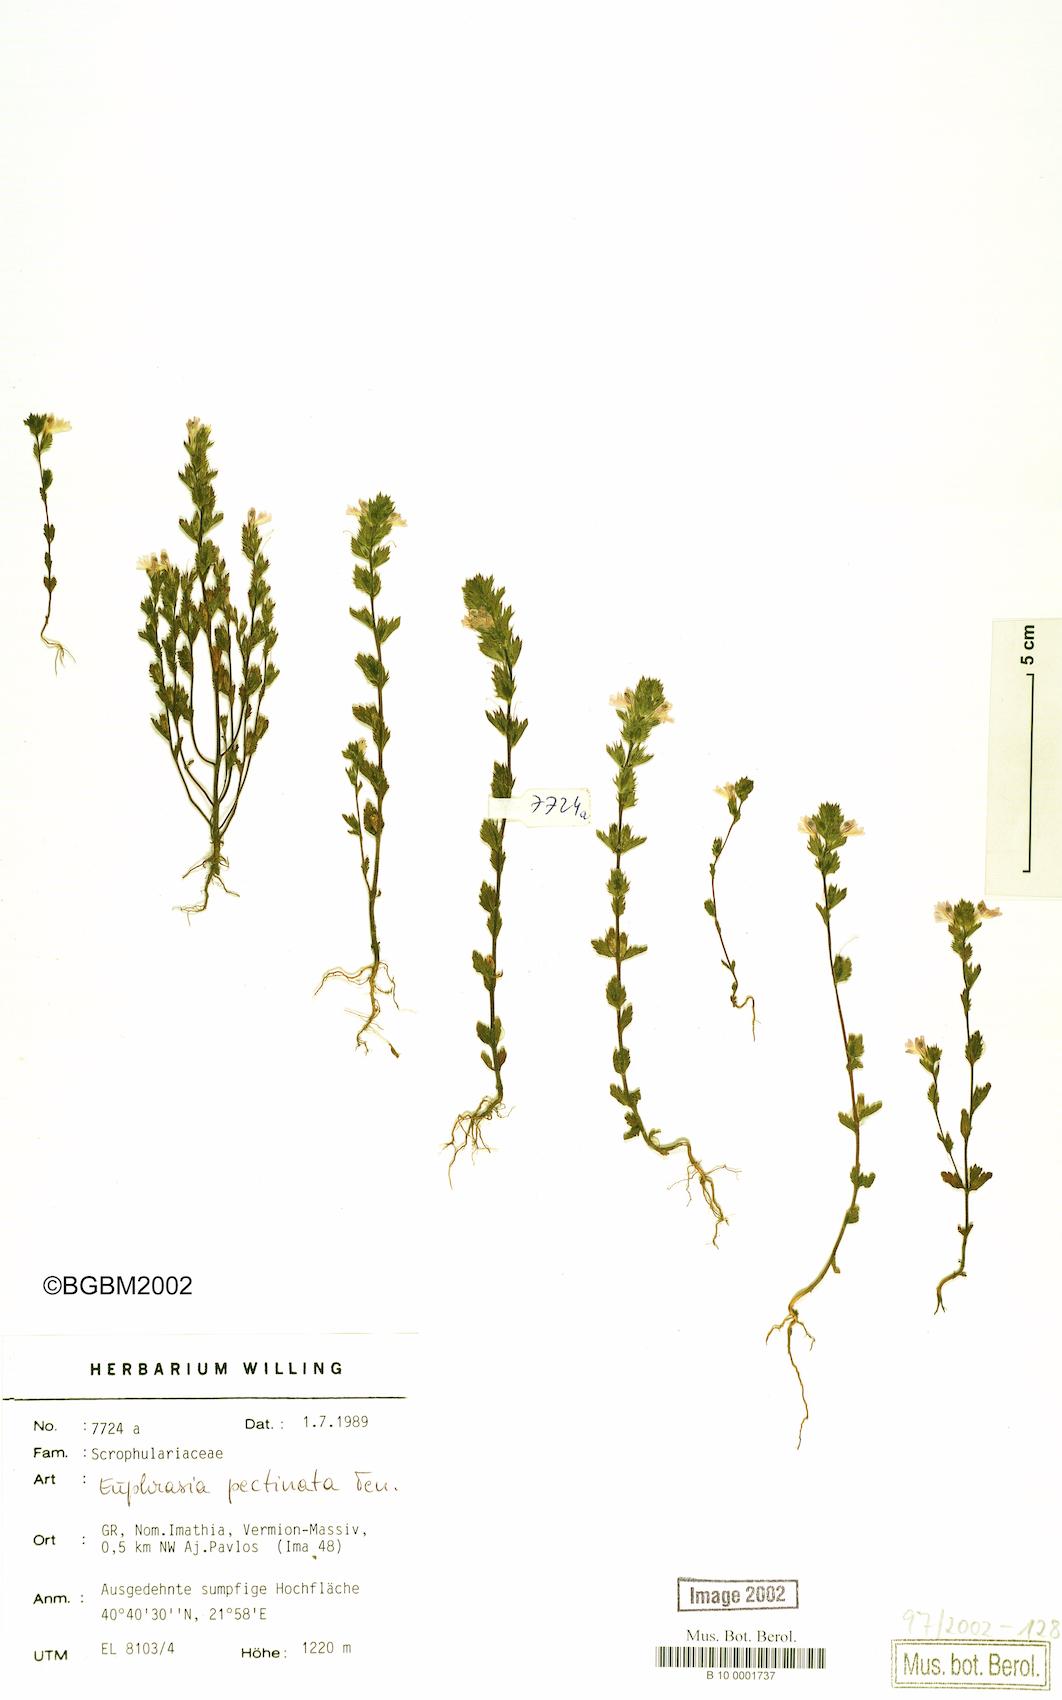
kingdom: Plantae
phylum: Tracheophyta
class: Magnoliopsida
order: Lamiales
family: Orobanchaceae
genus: Euphrasia
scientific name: Euphrasia pectinata
